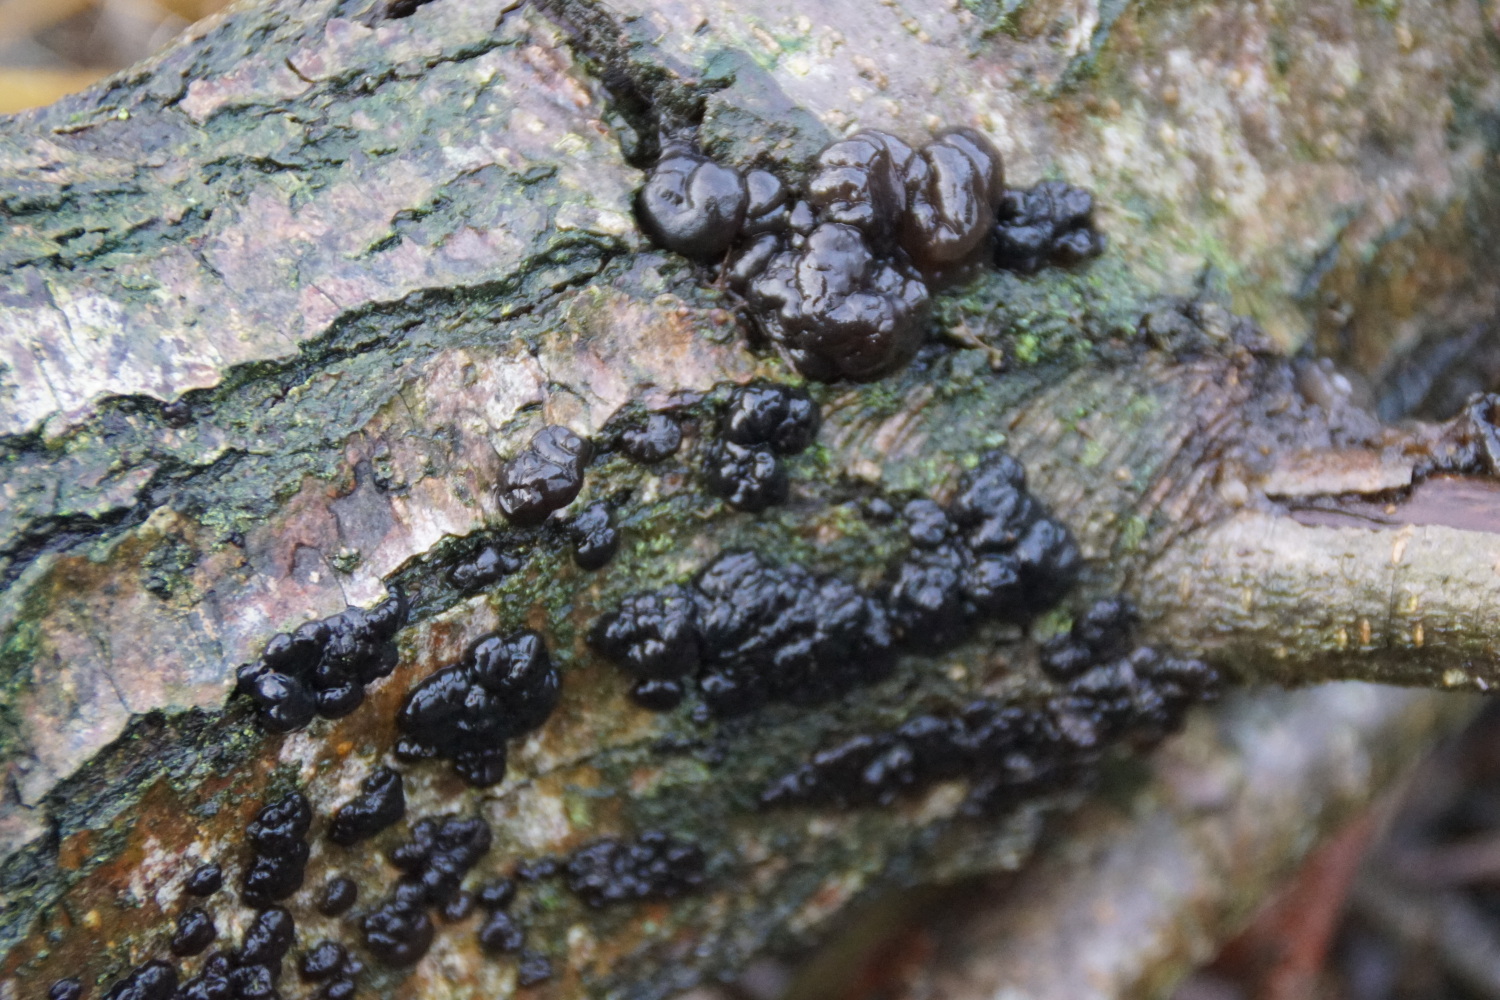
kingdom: Fungi
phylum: Basidiomycota
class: Agaricomycetes
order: Auriculariales
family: Auriculariaceae
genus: Exidia
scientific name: Exidia nigricans
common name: almindelig bævretop
